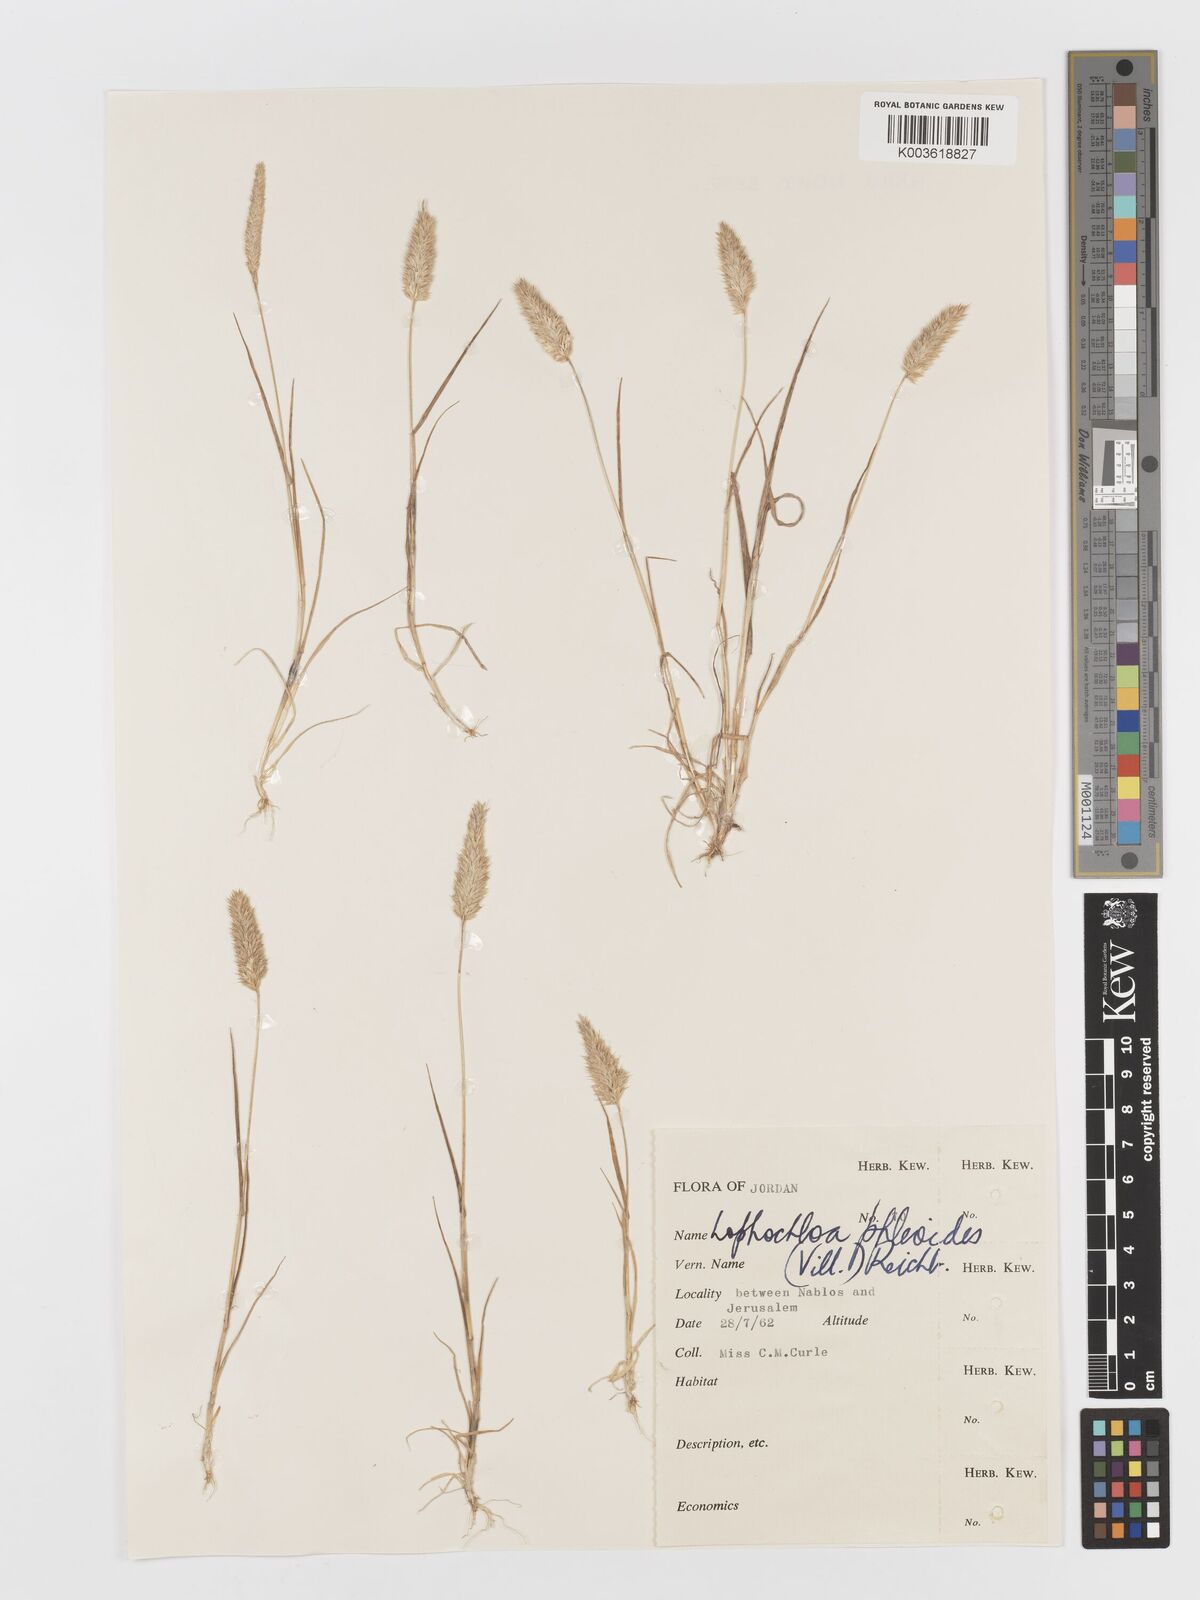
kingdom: Plantae
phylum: Tracheophyta
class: Liliopsida
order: Poales
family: Poaceae
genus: Rostraria
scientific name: Rostraria cristata
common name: Mediterranean hair-grass
